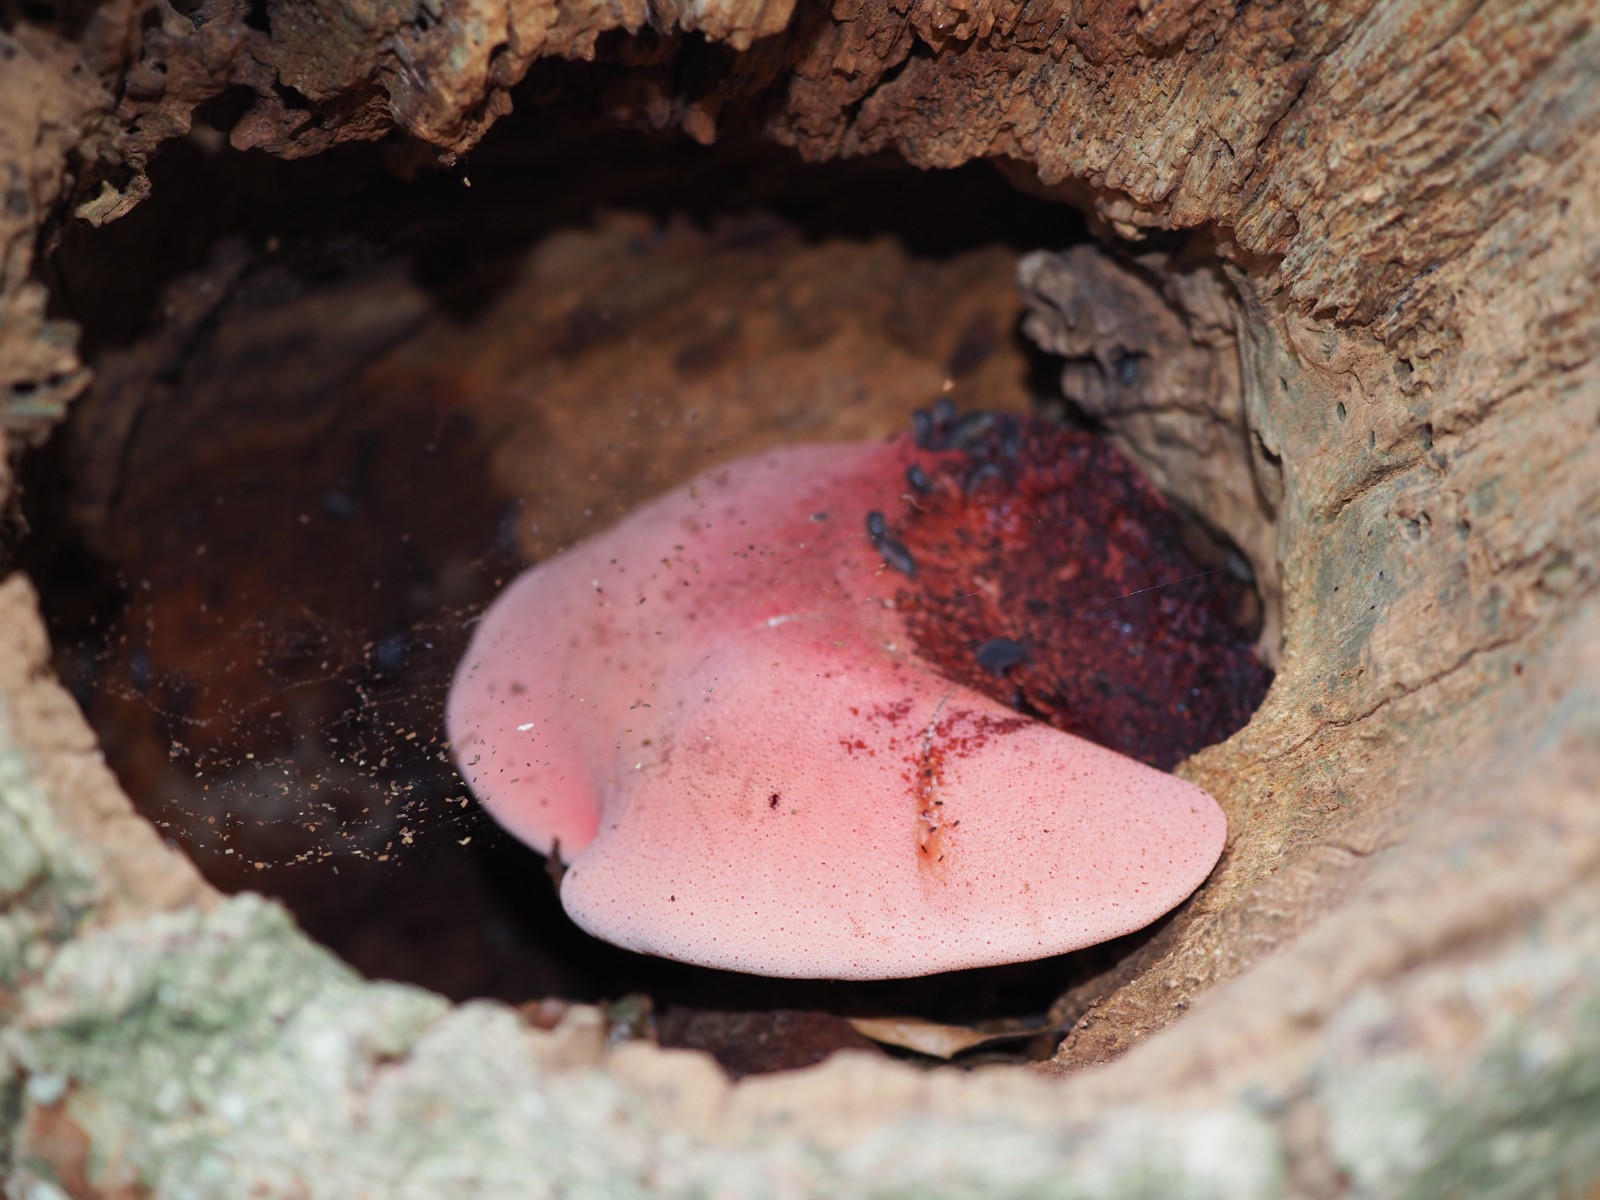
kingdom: Fungi
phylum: Basidiomycota
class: Agaricomycetes
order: Agaricales
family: Fistulinaceae
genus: Fistulina
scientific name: Fistulina hepatica
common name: oksetunge
